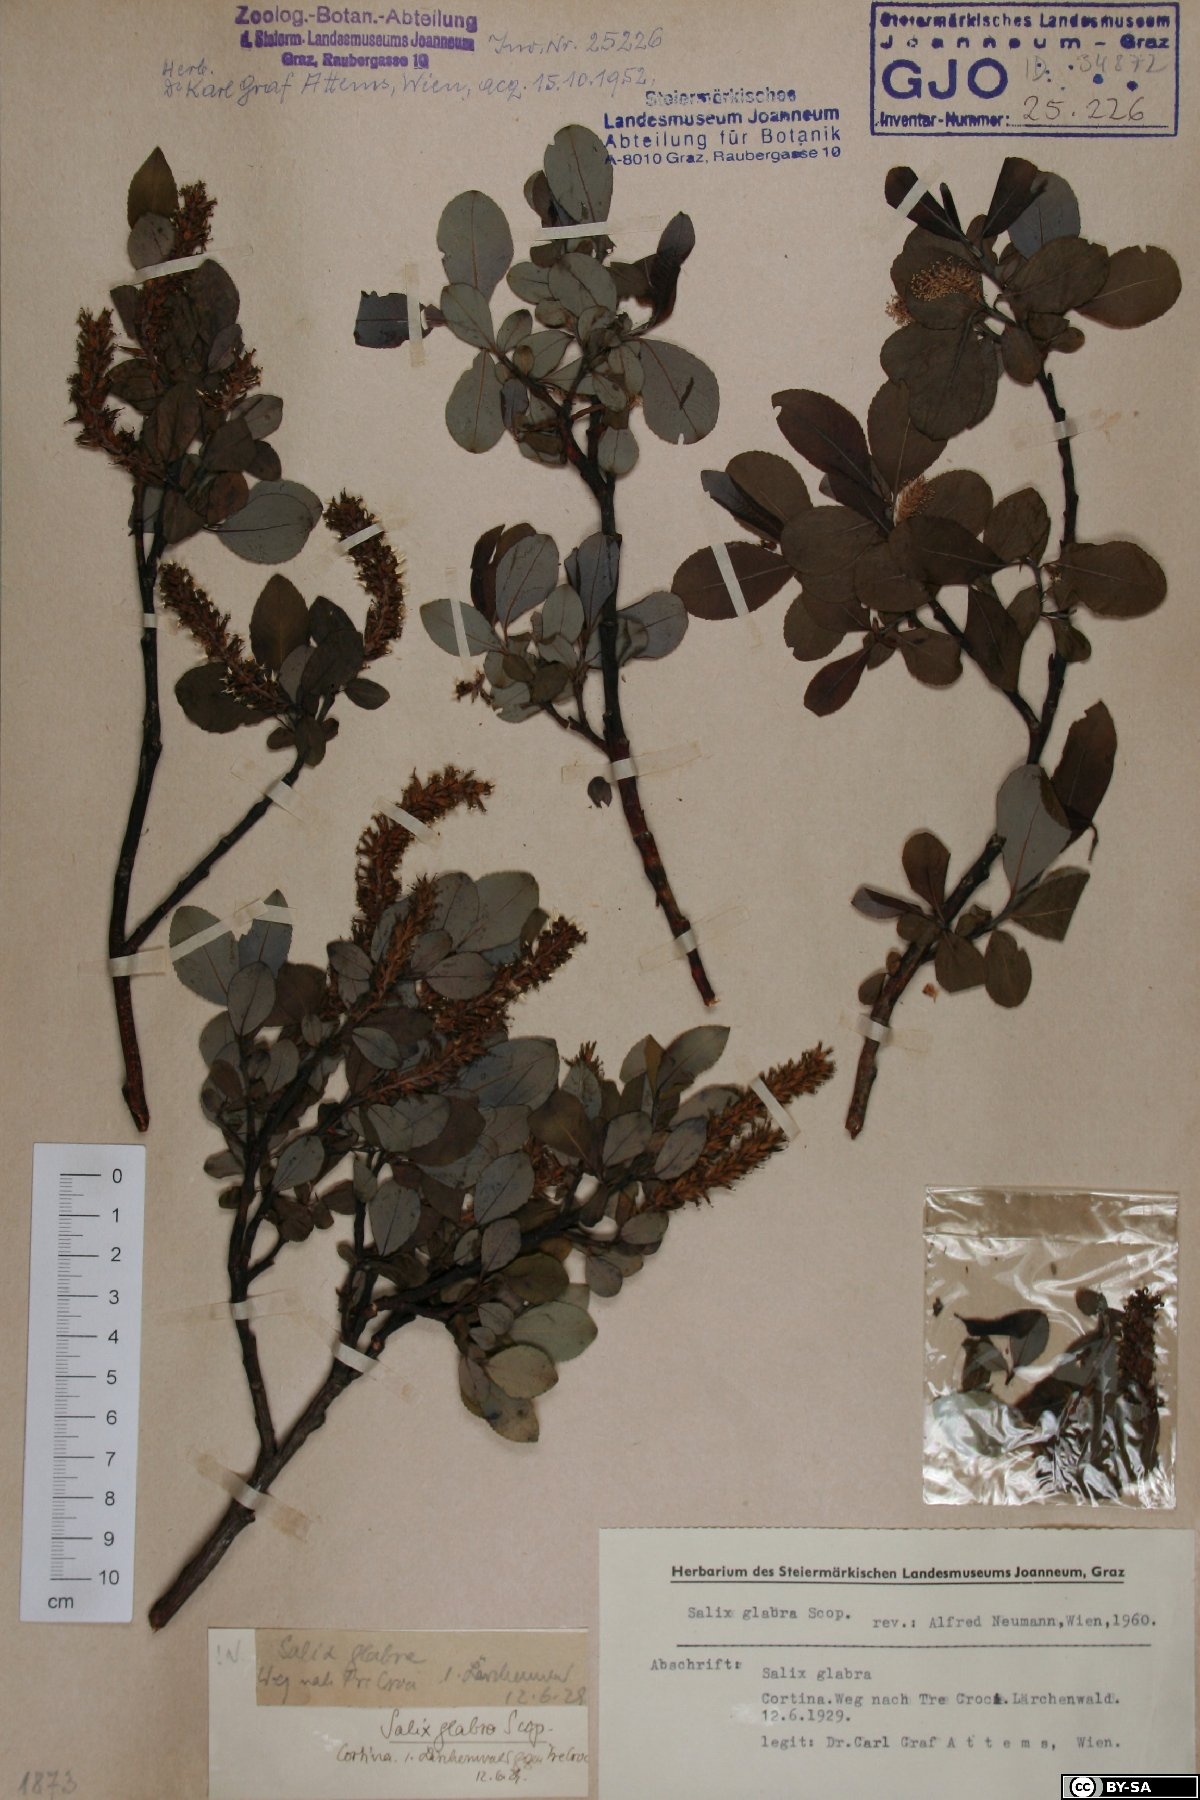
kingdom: Plantae
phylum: Tracheophyta
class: Magnoliopsida
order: Malpighiales
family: Salicaceae
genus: Salix
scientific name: Salix glabra
